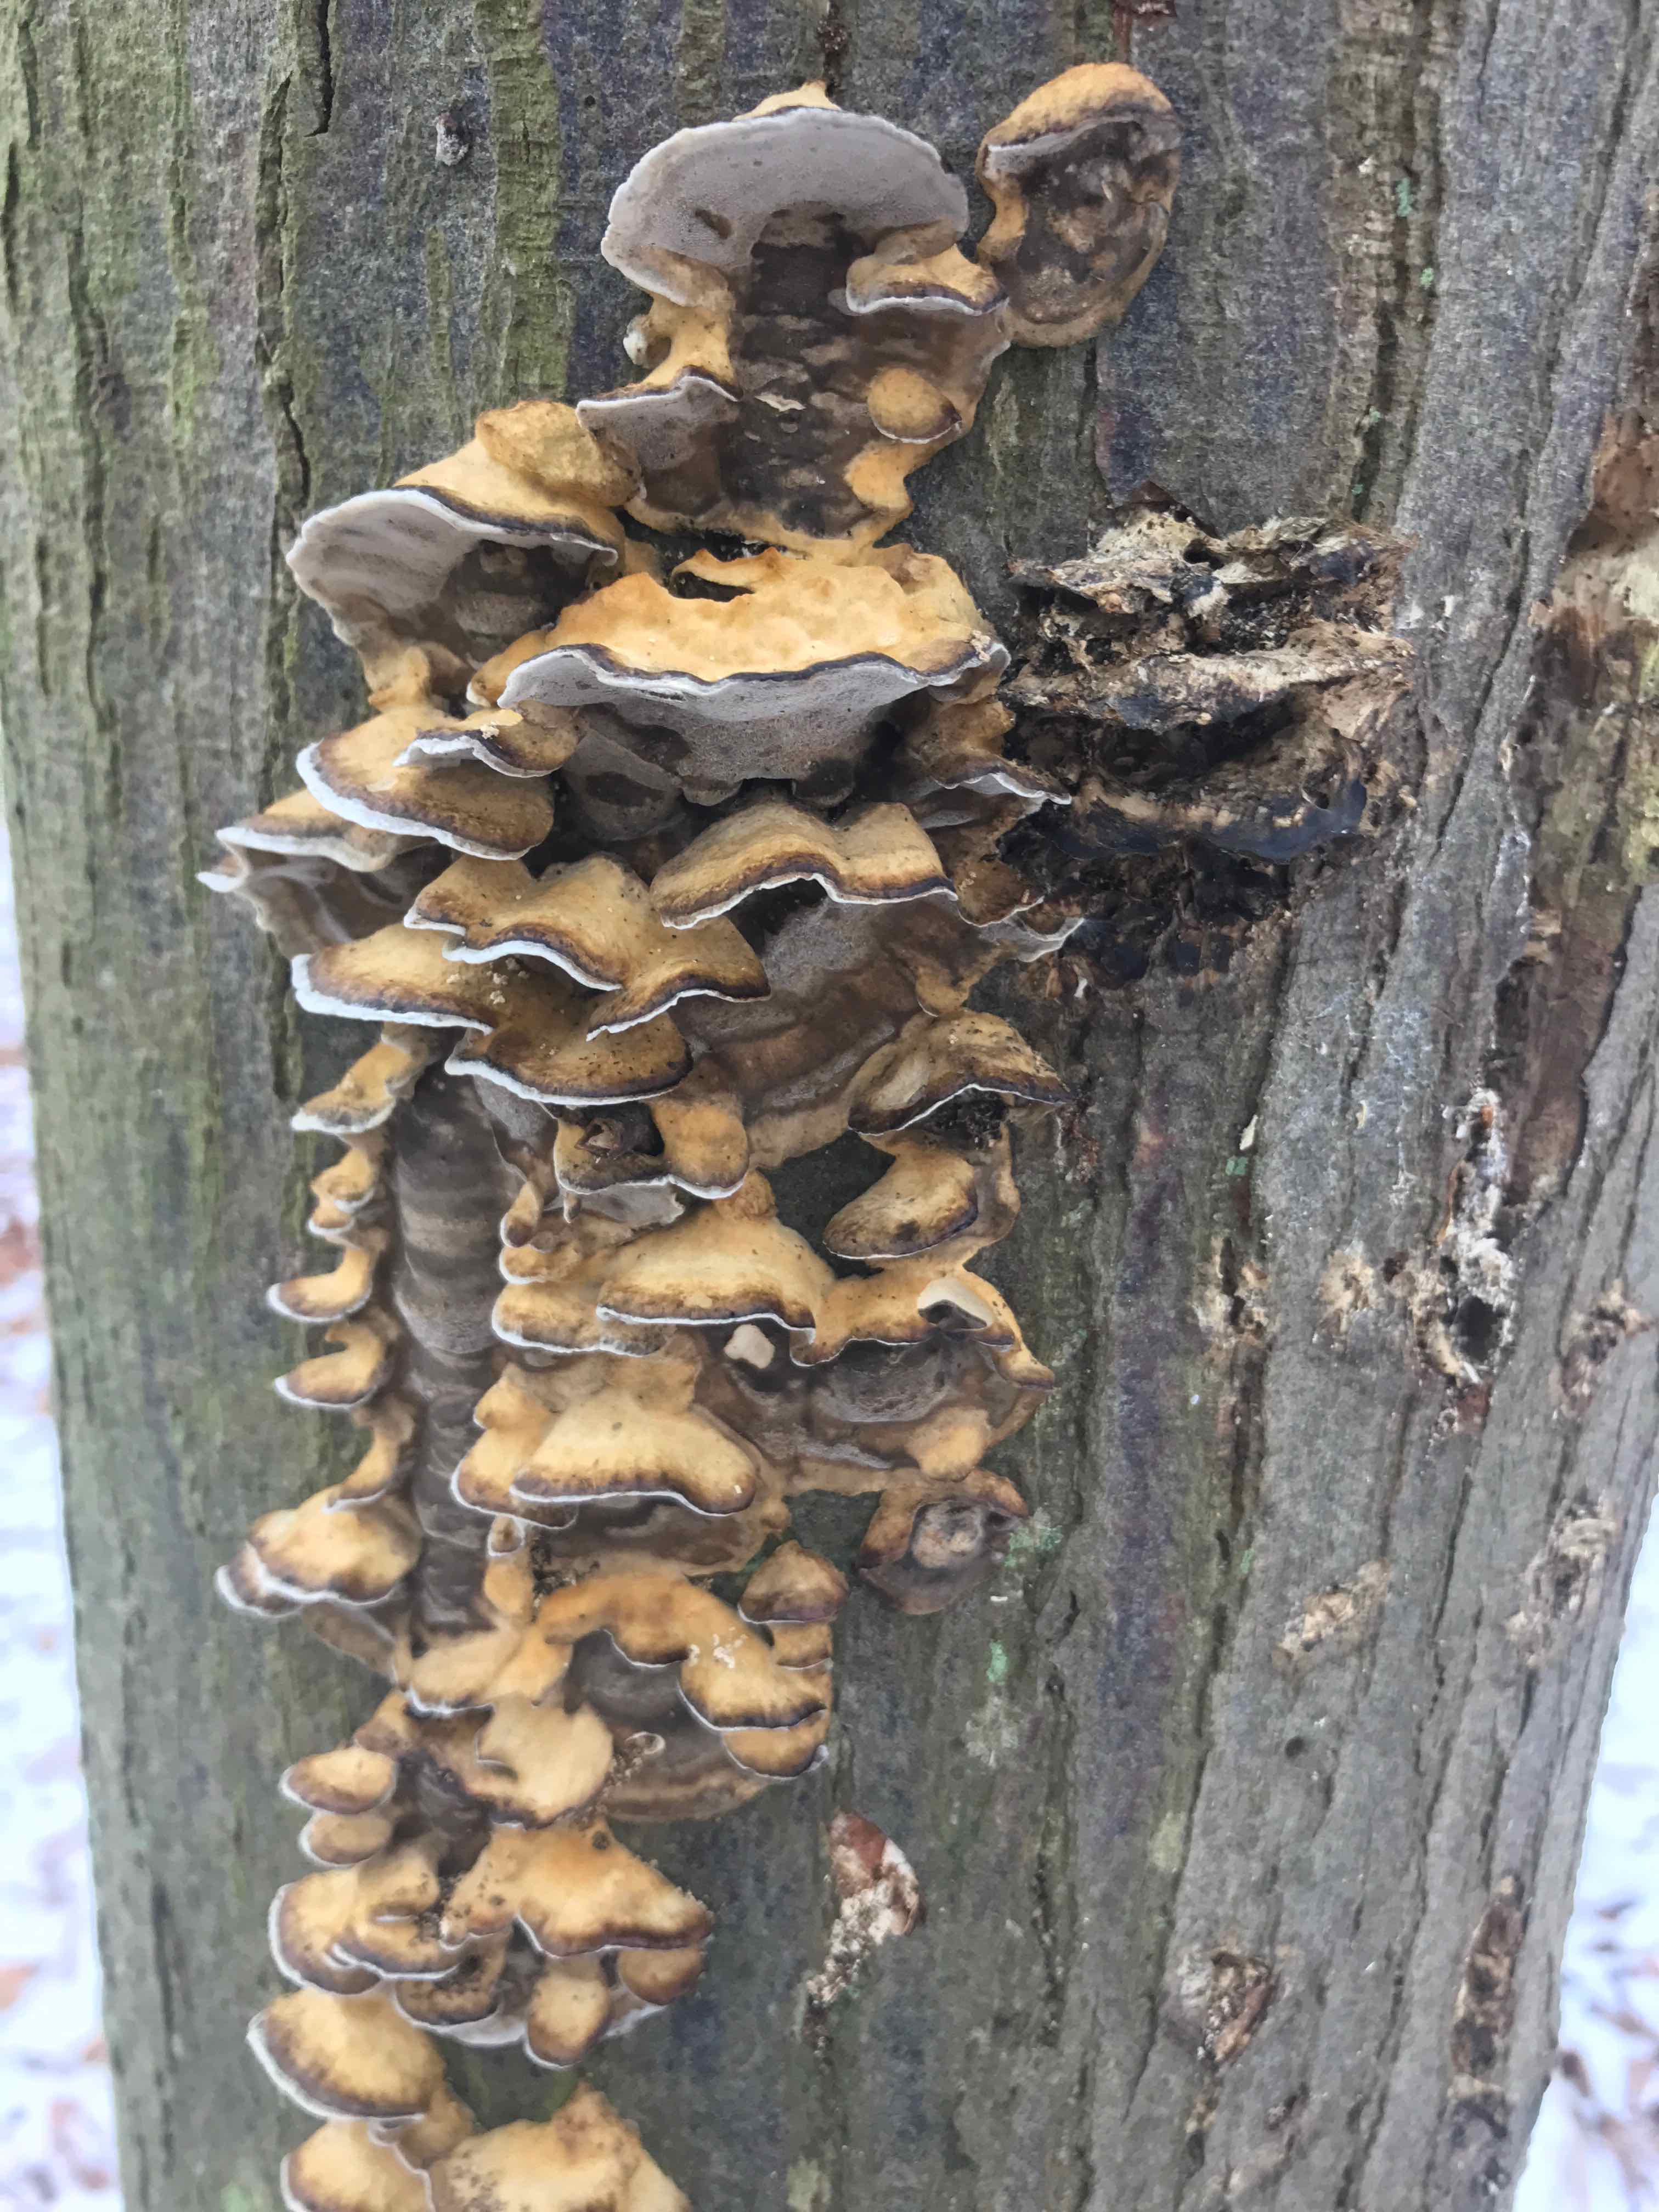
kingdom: Fungi
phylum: Basidiomycota
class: Agaricomycetes
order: Polyporales
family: Phanerochaetaceae
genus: Bjerkandera
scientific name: Bjerkandera adusta
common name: sveden sodporesvamp
